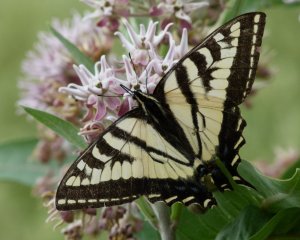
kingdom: Animalia
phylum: Arthropoda
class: Insecta
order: Lepidoptera
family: Papilionidae
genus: Pterourus
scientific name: Pterourus rutulus
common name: Western Tiger Swallowtail
